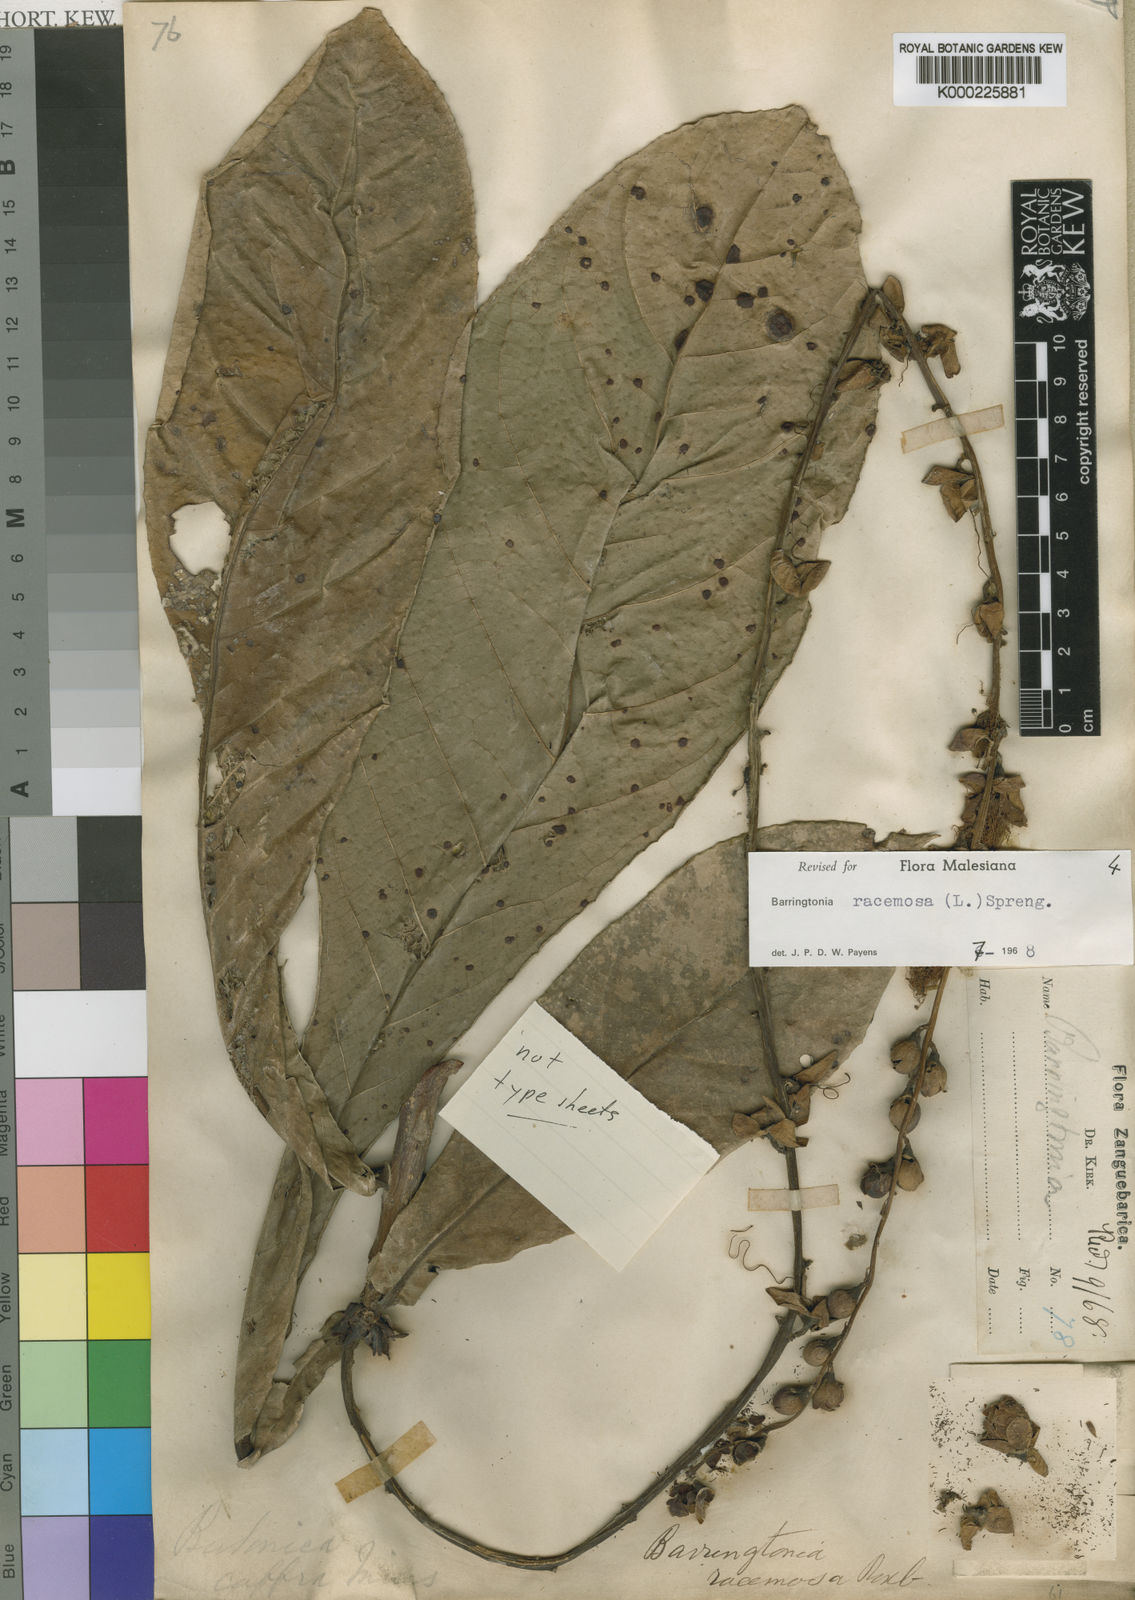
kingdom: Plantae
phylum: Tracheophyta
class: Magnoliopsida
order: Ericales
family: Lecythidaceae
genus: Barringtonia
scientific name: Barringtonia racemosa
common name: Brackwater mangrove
